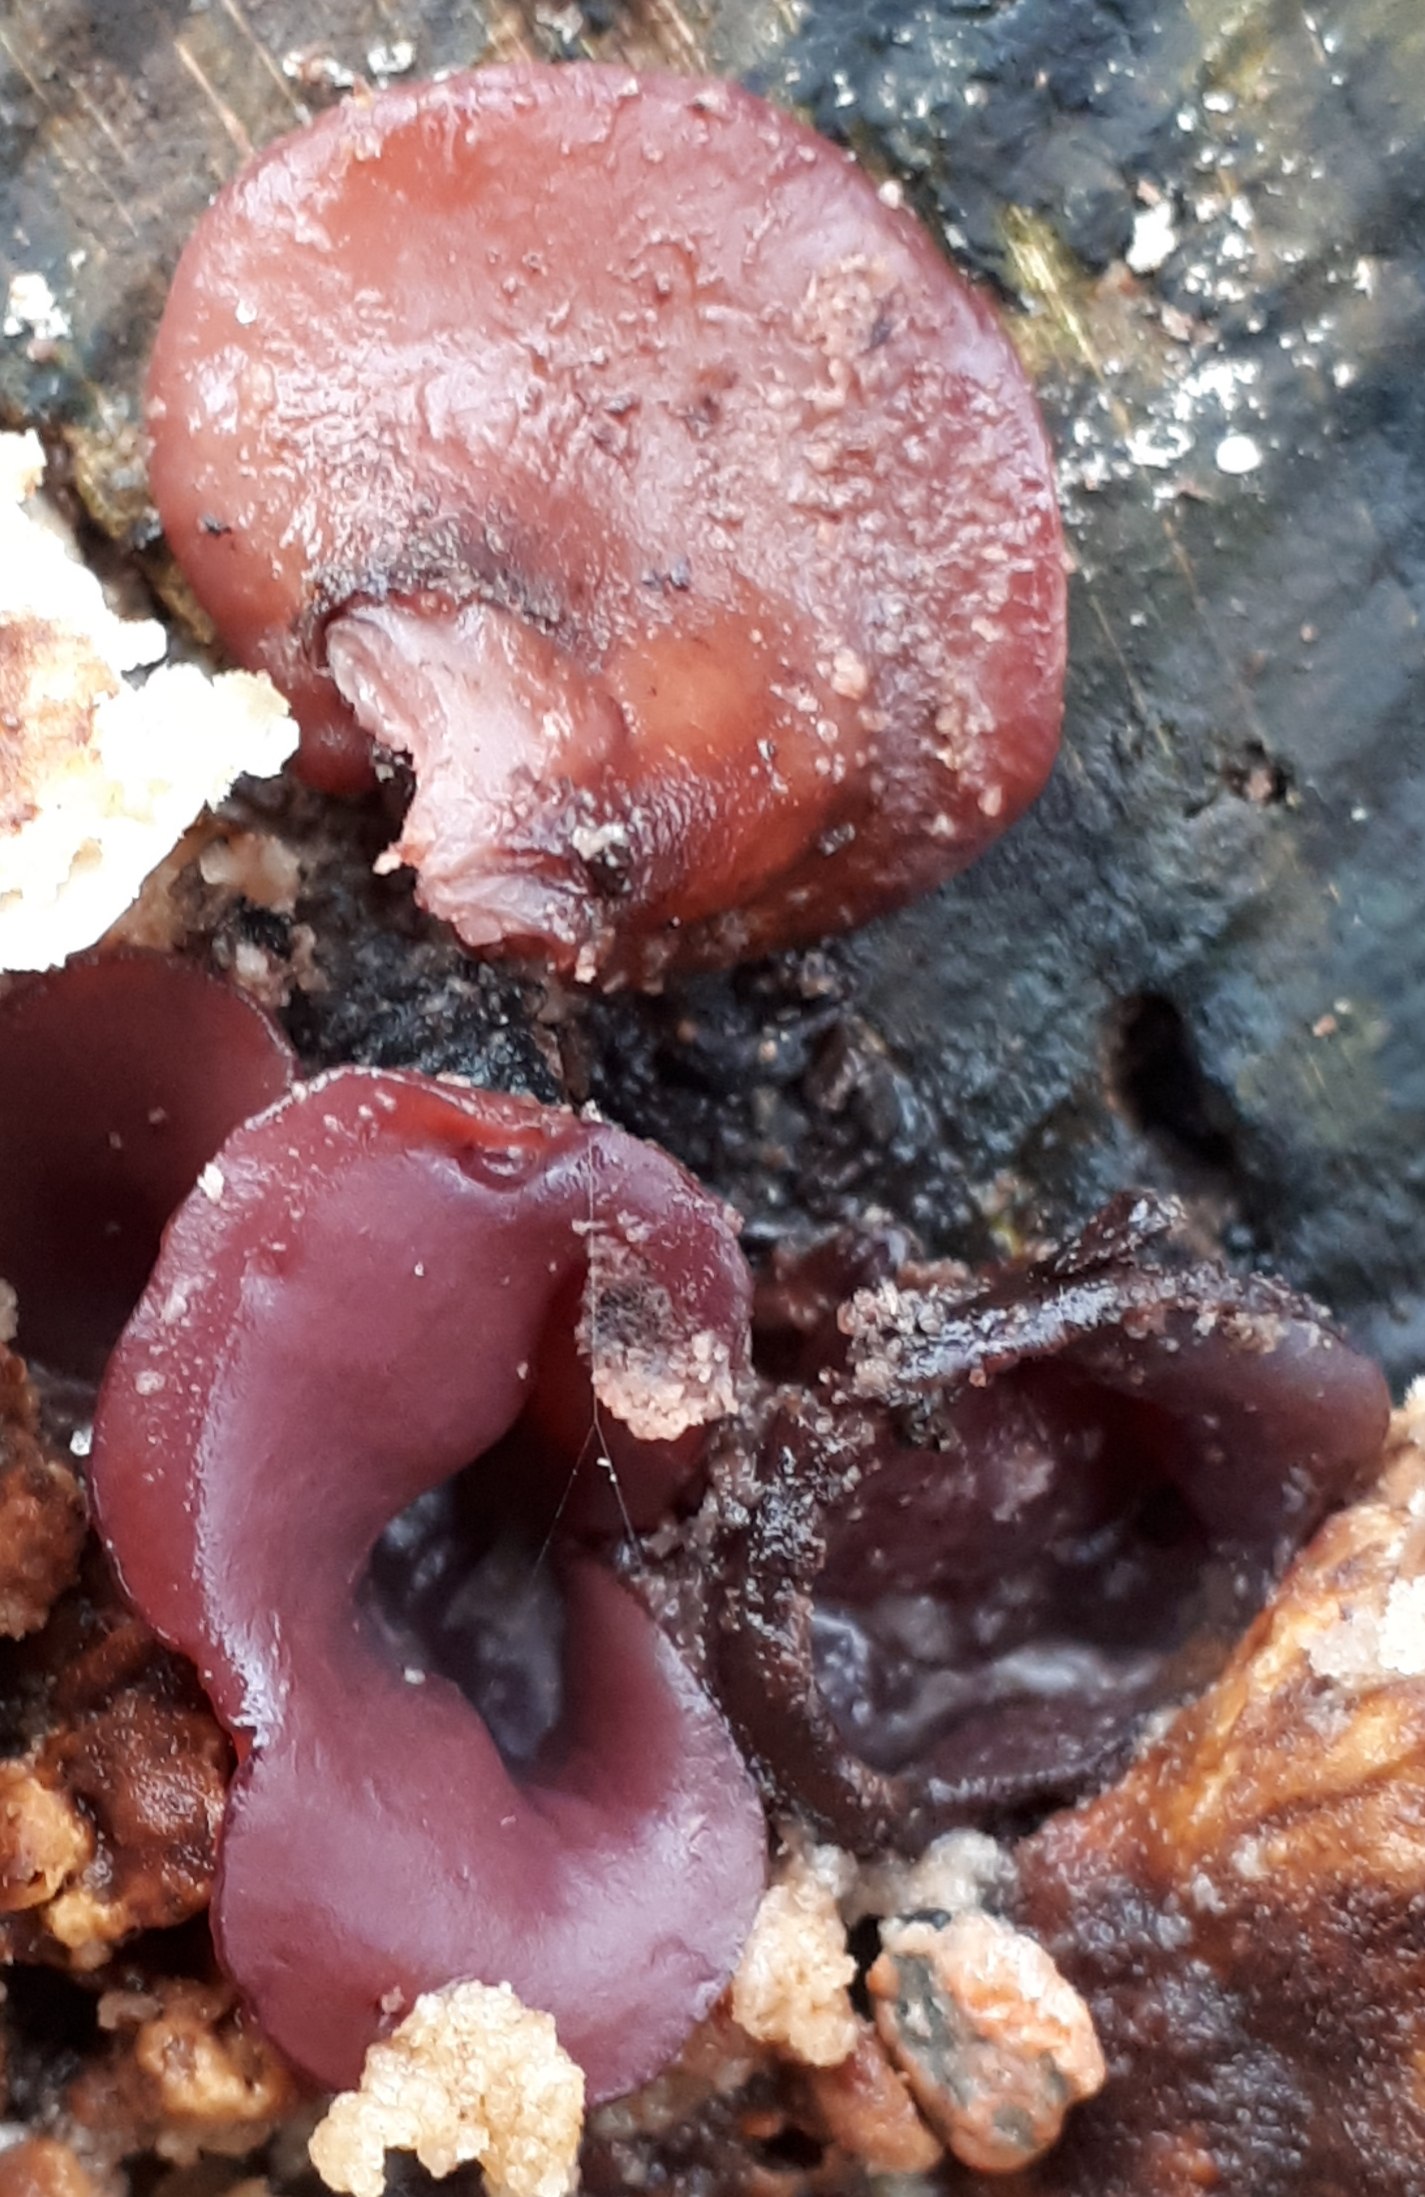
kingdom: Fungi
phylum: Ascomycota
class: Leotiomycetes
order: Helotiales
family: Gelatinodiscaceae
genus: Ascocoryne
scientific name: Ascocoryne
